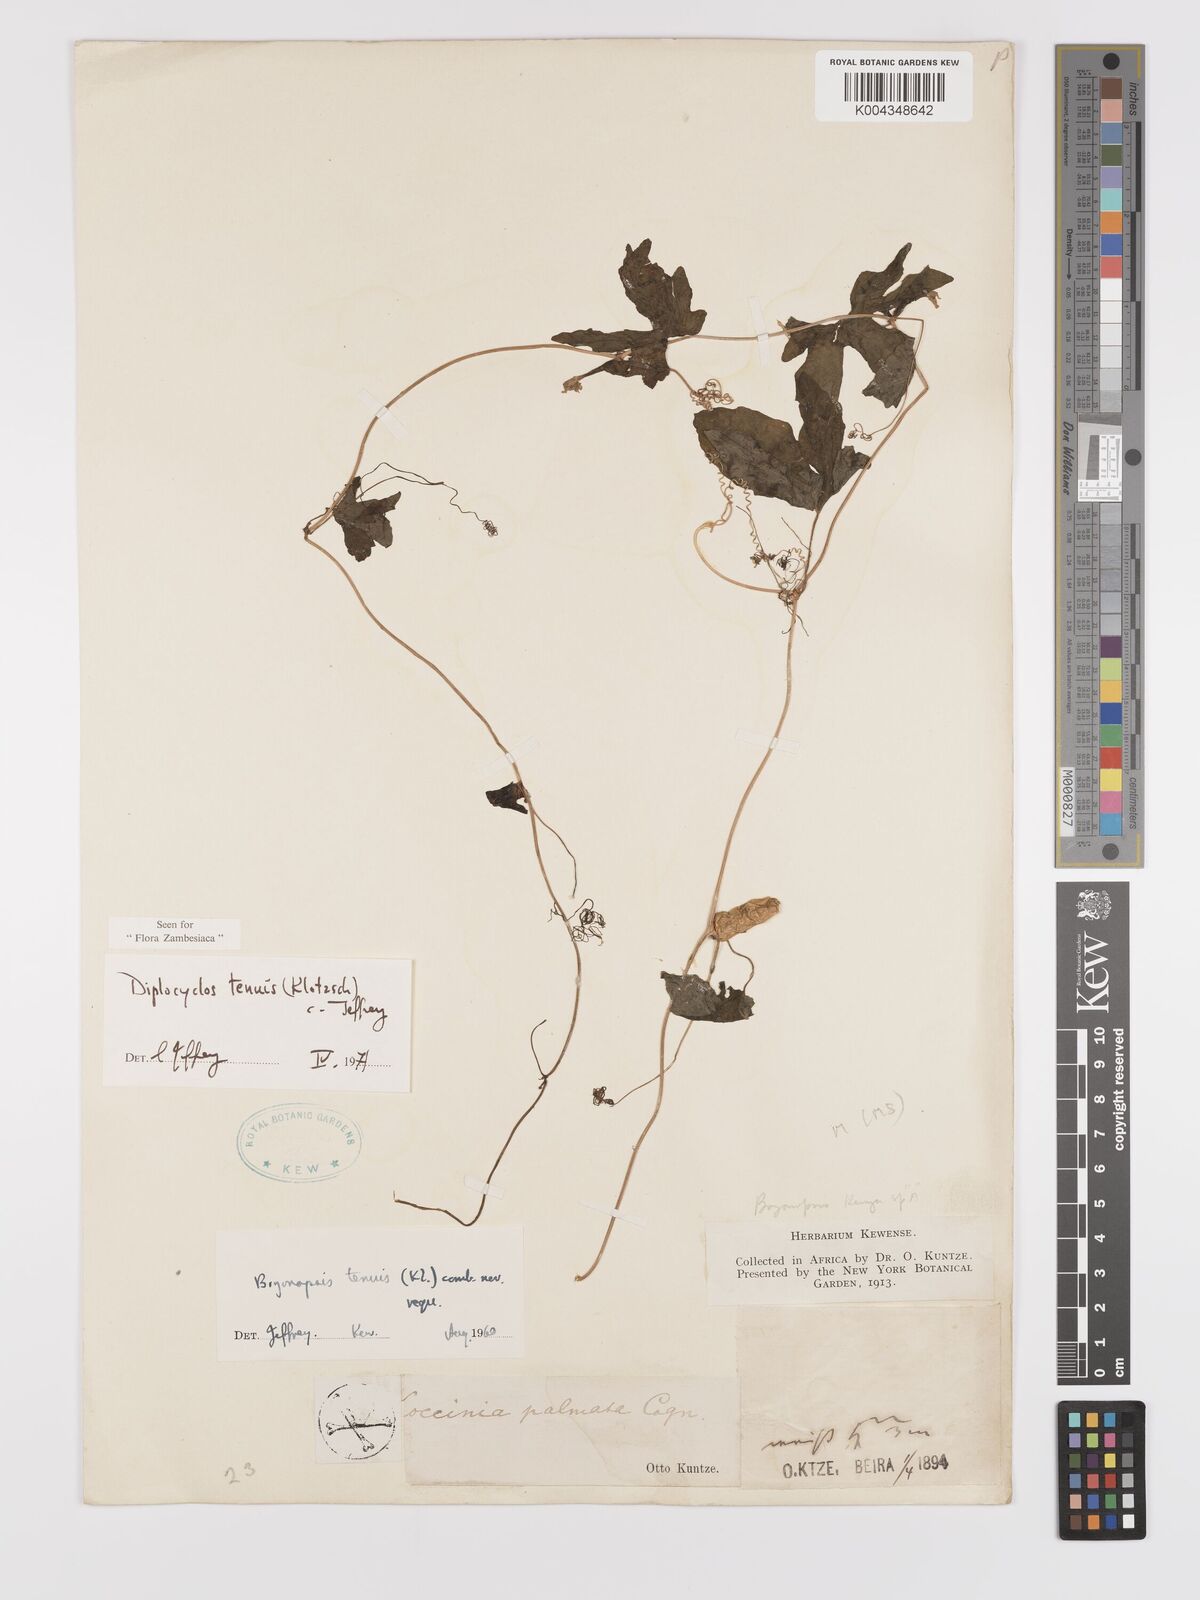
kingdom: Plantae
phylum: Tracheophyta
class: Magnoliopsida
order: Cucurbitales
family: Cucurbitaceae
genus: Diplocyclos
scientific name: Diplocyclos tenuis
